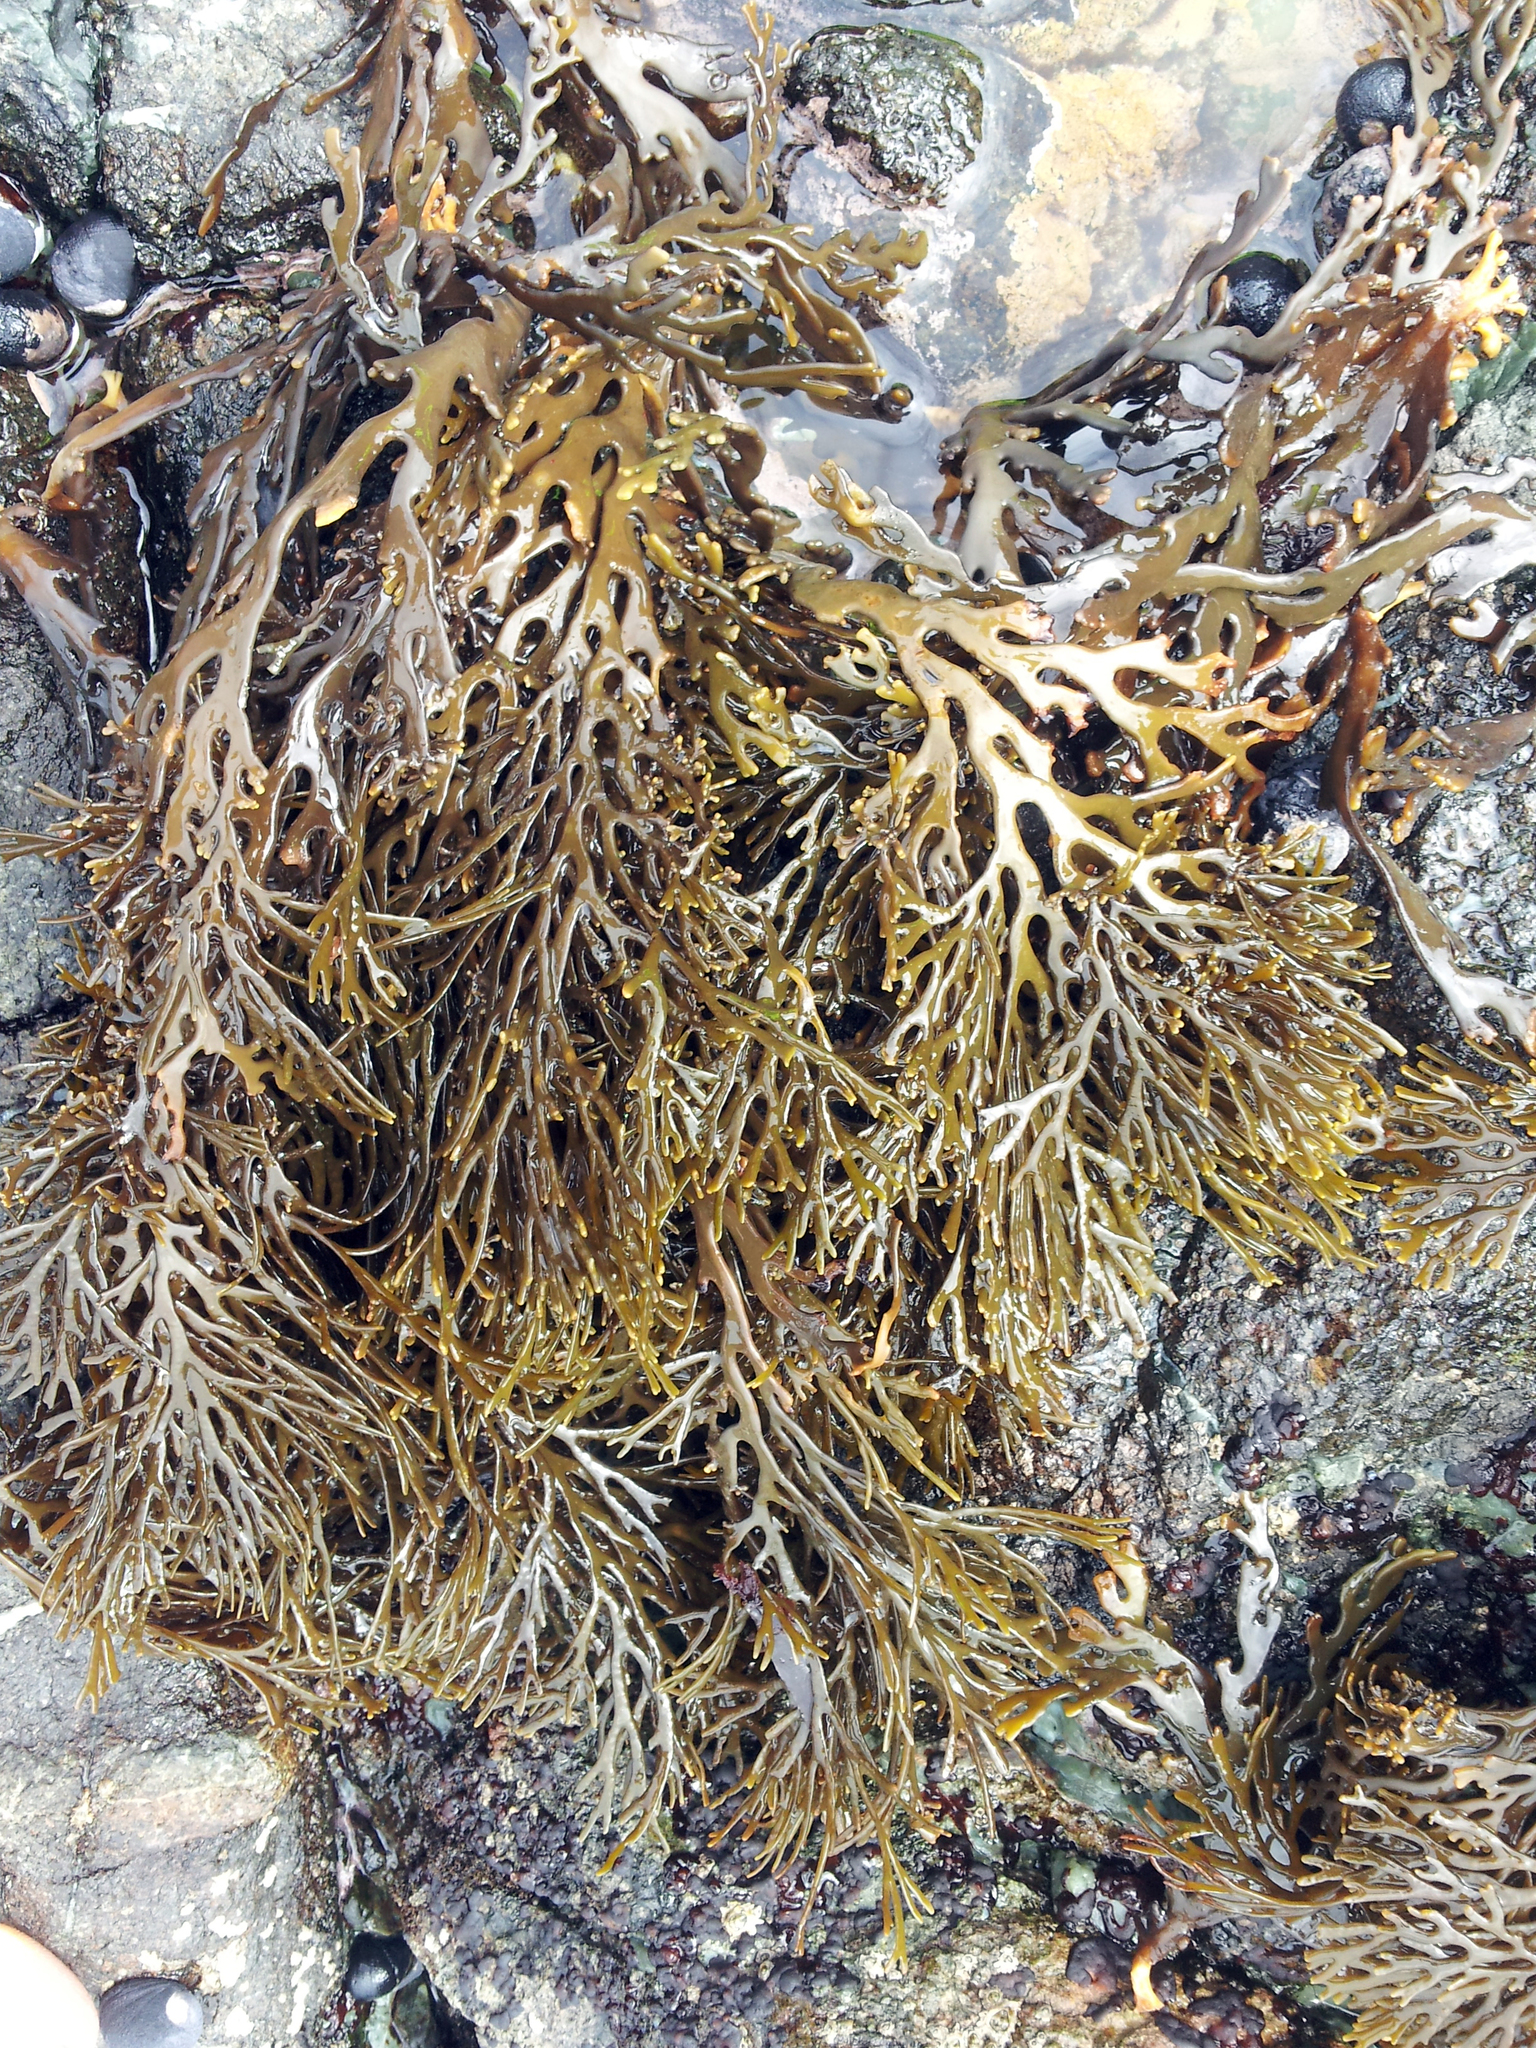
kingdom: Chromista
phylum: Ochrophyta
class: Phaeophyceae
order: Fucales
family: Xiphophoraceae
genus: Xiphophora
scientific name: Xiphophora chondrophylla
